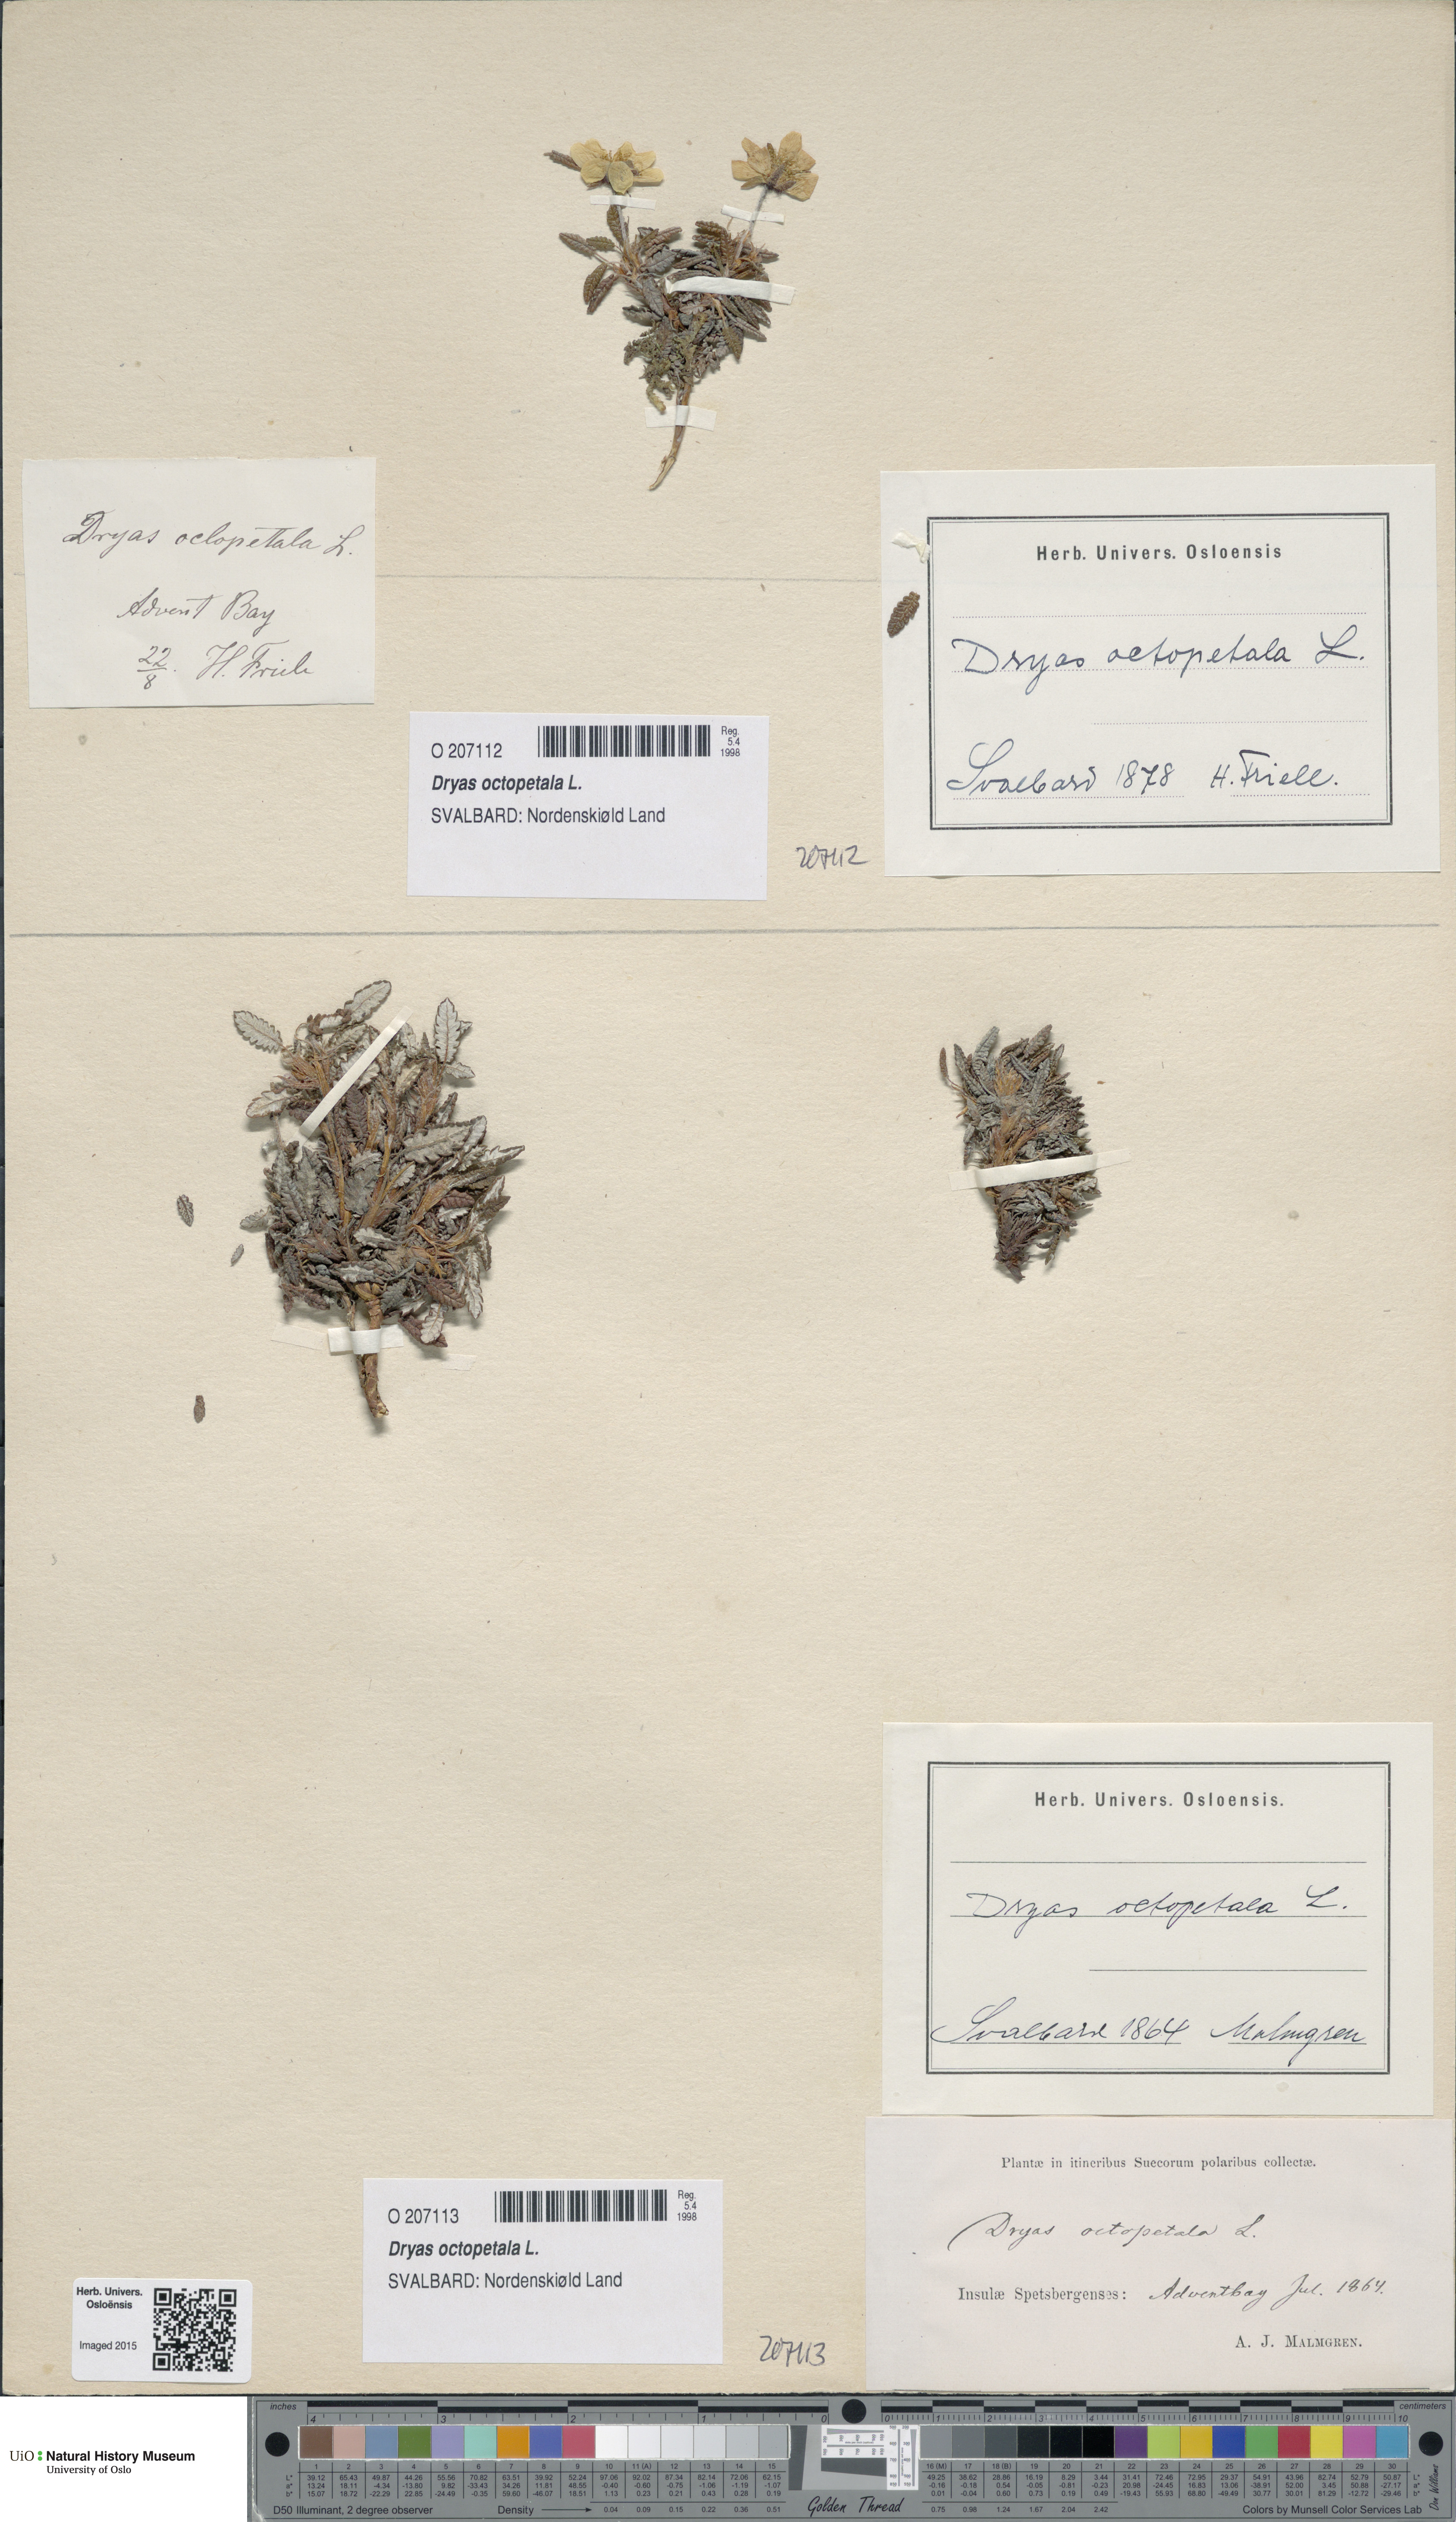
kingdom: Plantae
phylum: Tracheophyta
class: Magnoliopsida
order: Rosales
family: Rosaceae
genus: Dryas
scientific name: Dryas octopetala
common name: Eight-petal mountain-avens
